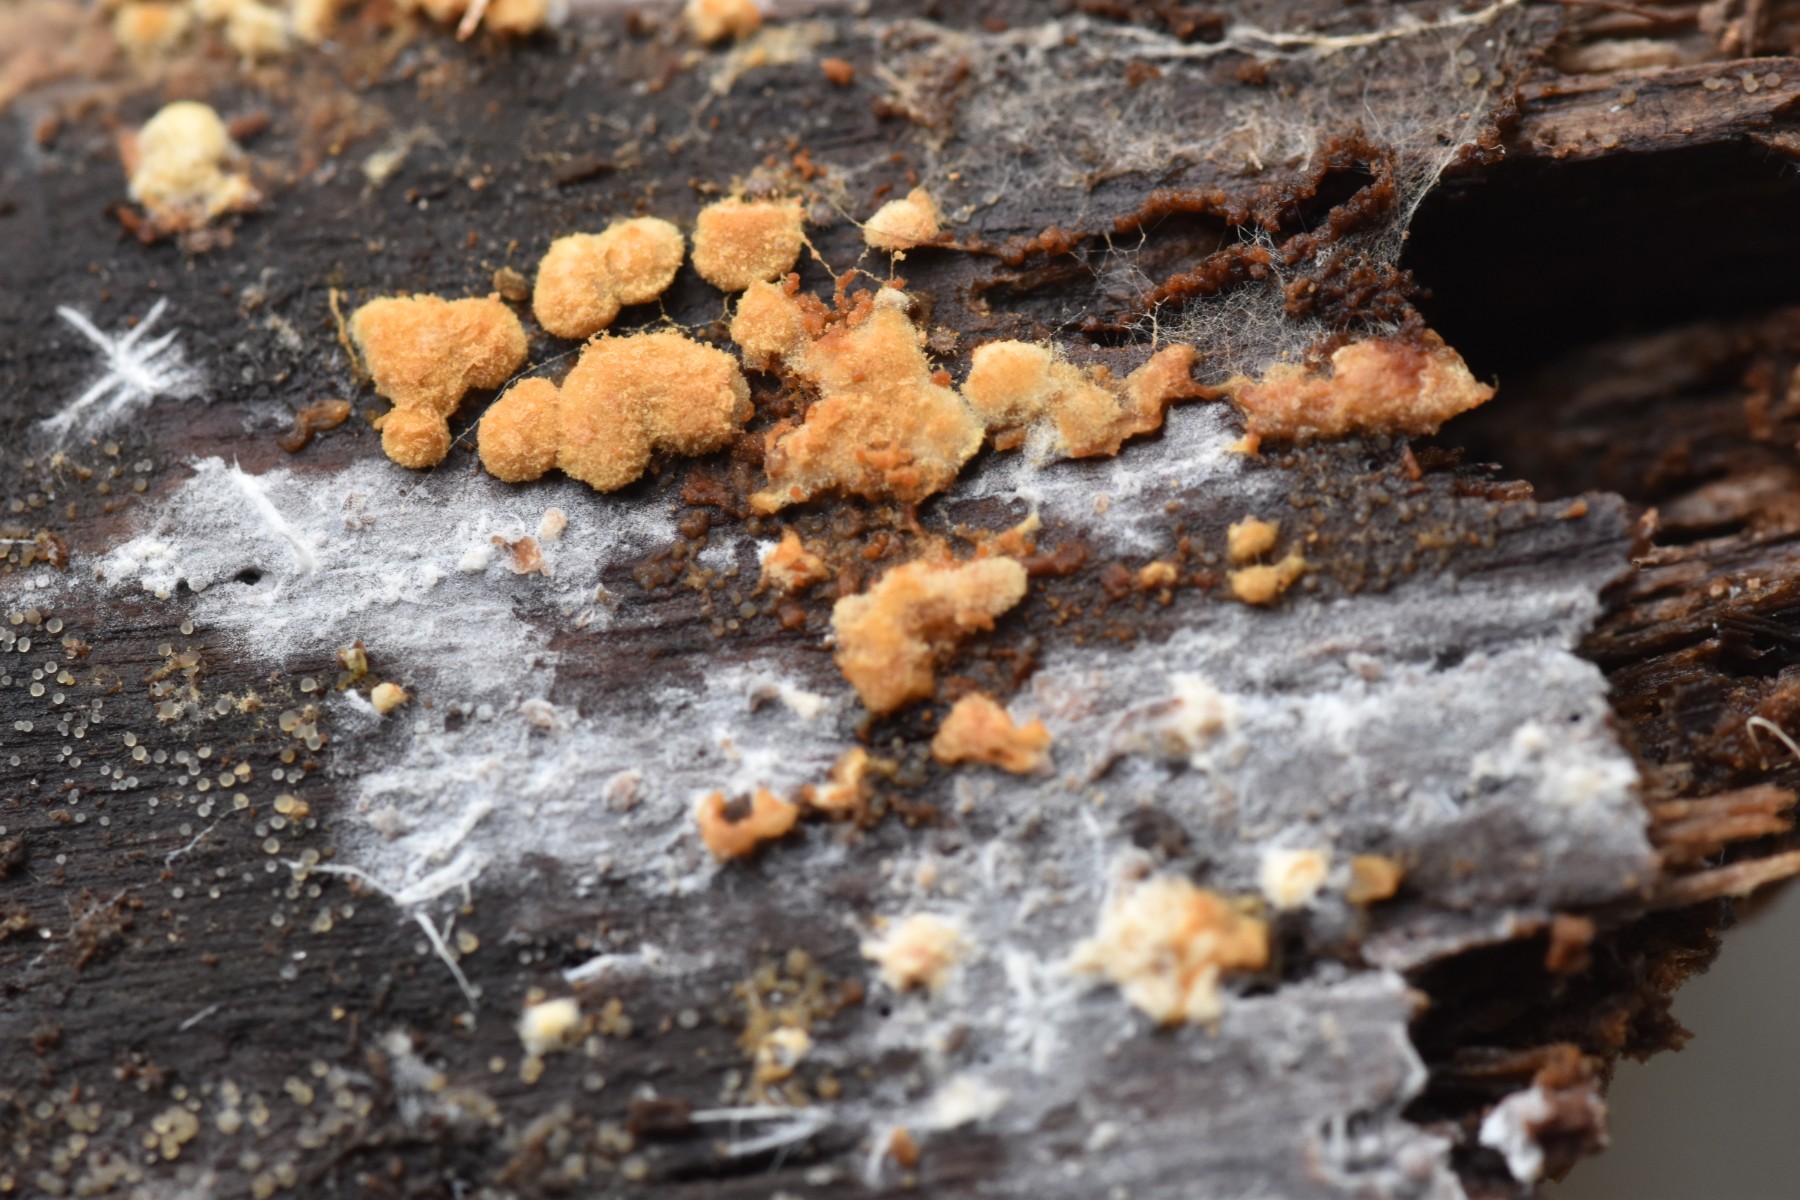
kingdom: Fungi
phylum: Basidiomycota
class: Agaricomycetes
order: Cantharellales
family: Botryobasidiaceae
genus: Botryobasidium
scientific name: Botryobasidium aureum
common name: gylden spindhinde
